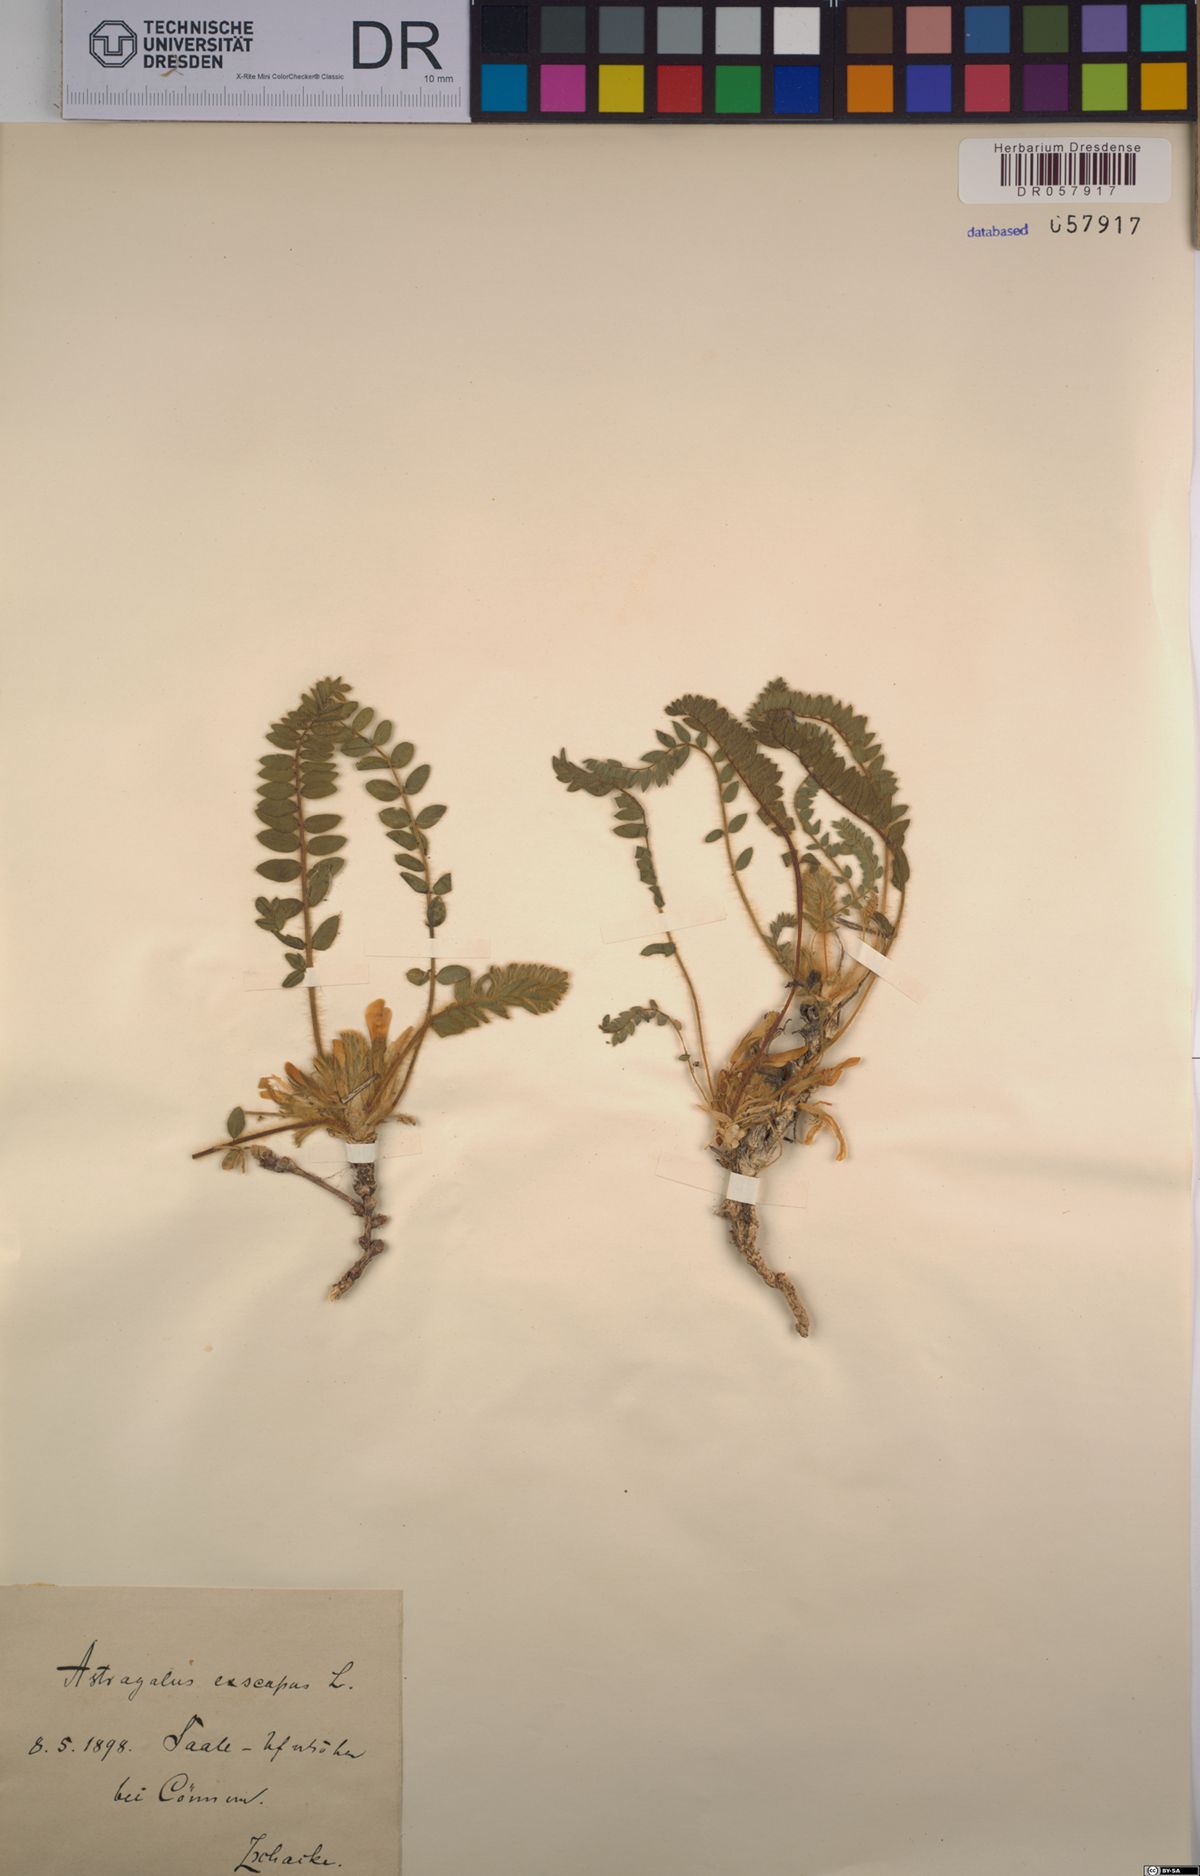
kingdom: Plantae
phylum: Tracheophyta
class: Magnoliopsida
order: Fabales
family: Fabaceae
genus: Astragalus
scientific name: Astragalus exscapus
